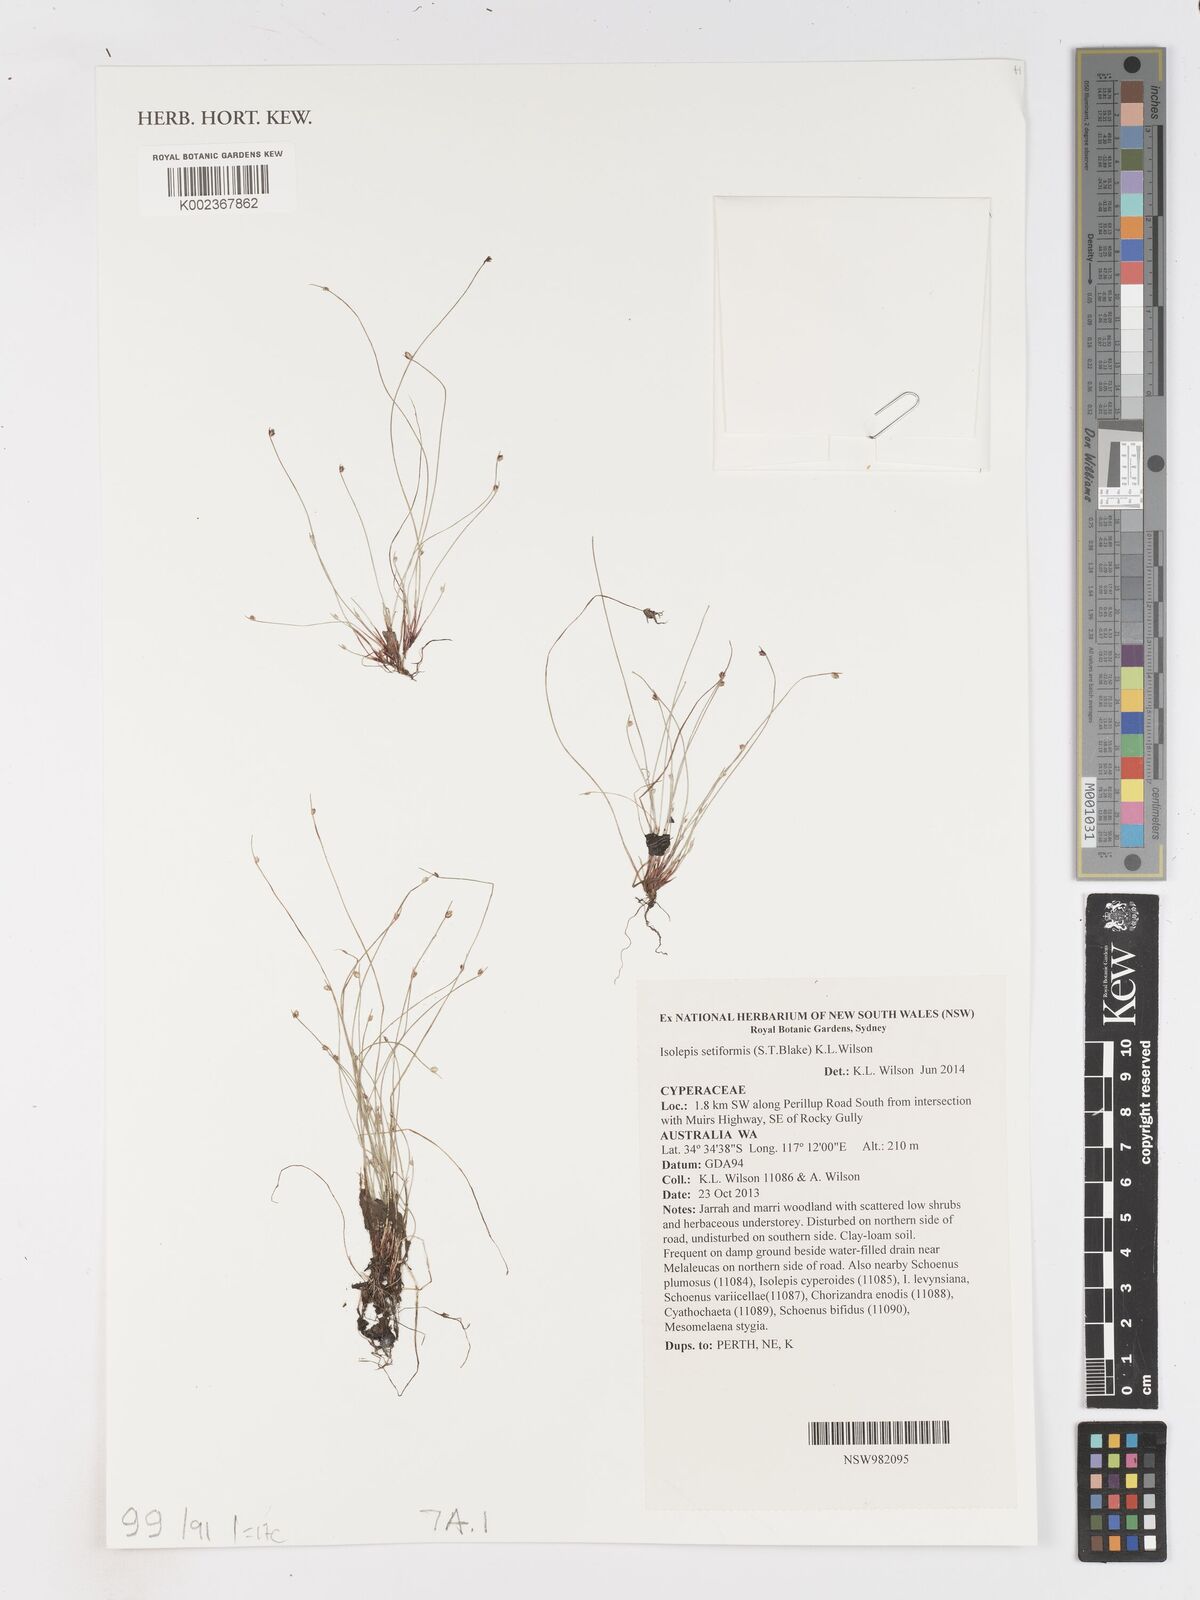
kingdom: Plantae
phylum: Tracheophyta
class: Liliopsida
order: Poales
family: Cyperaceae
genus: Isolepis
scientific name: Isolepis cernua
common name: Slender club-rush
